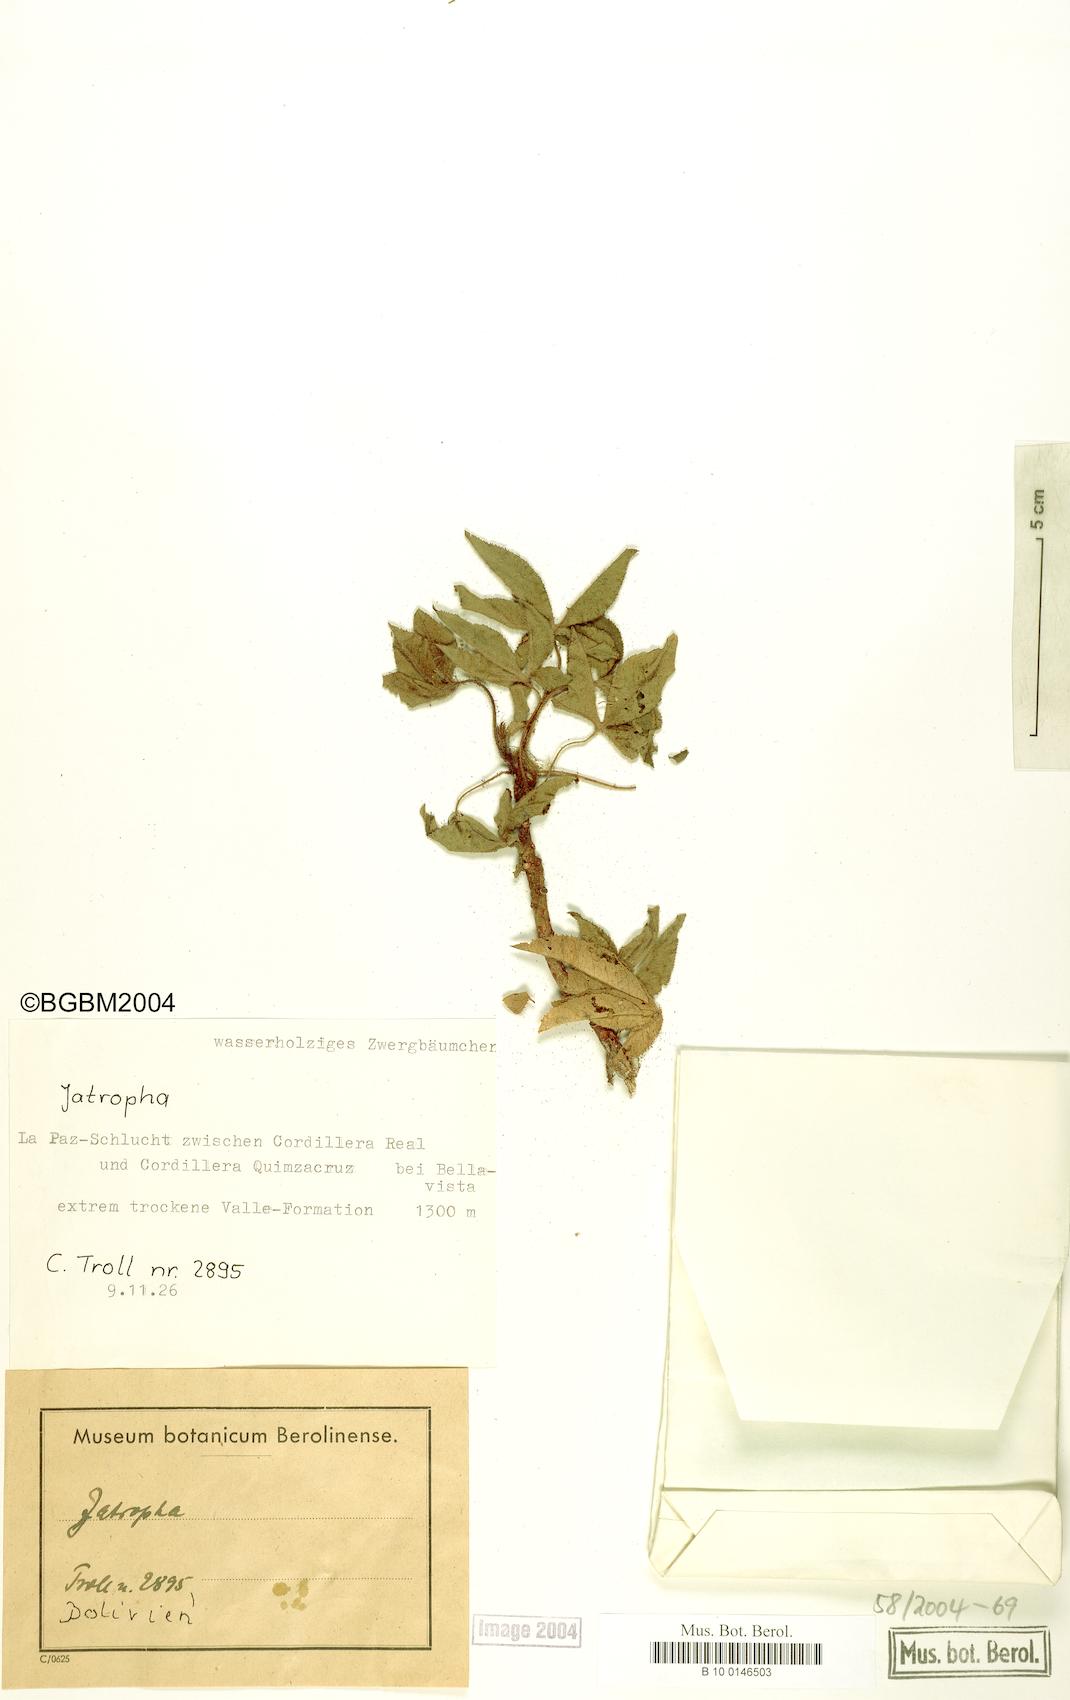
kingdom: Plantae
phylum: Tracheophyta
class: Magnoliopsida
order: Malpighiales
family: Euphorbiaceae
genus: Jatropha
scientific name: Jatropha clavuligera
